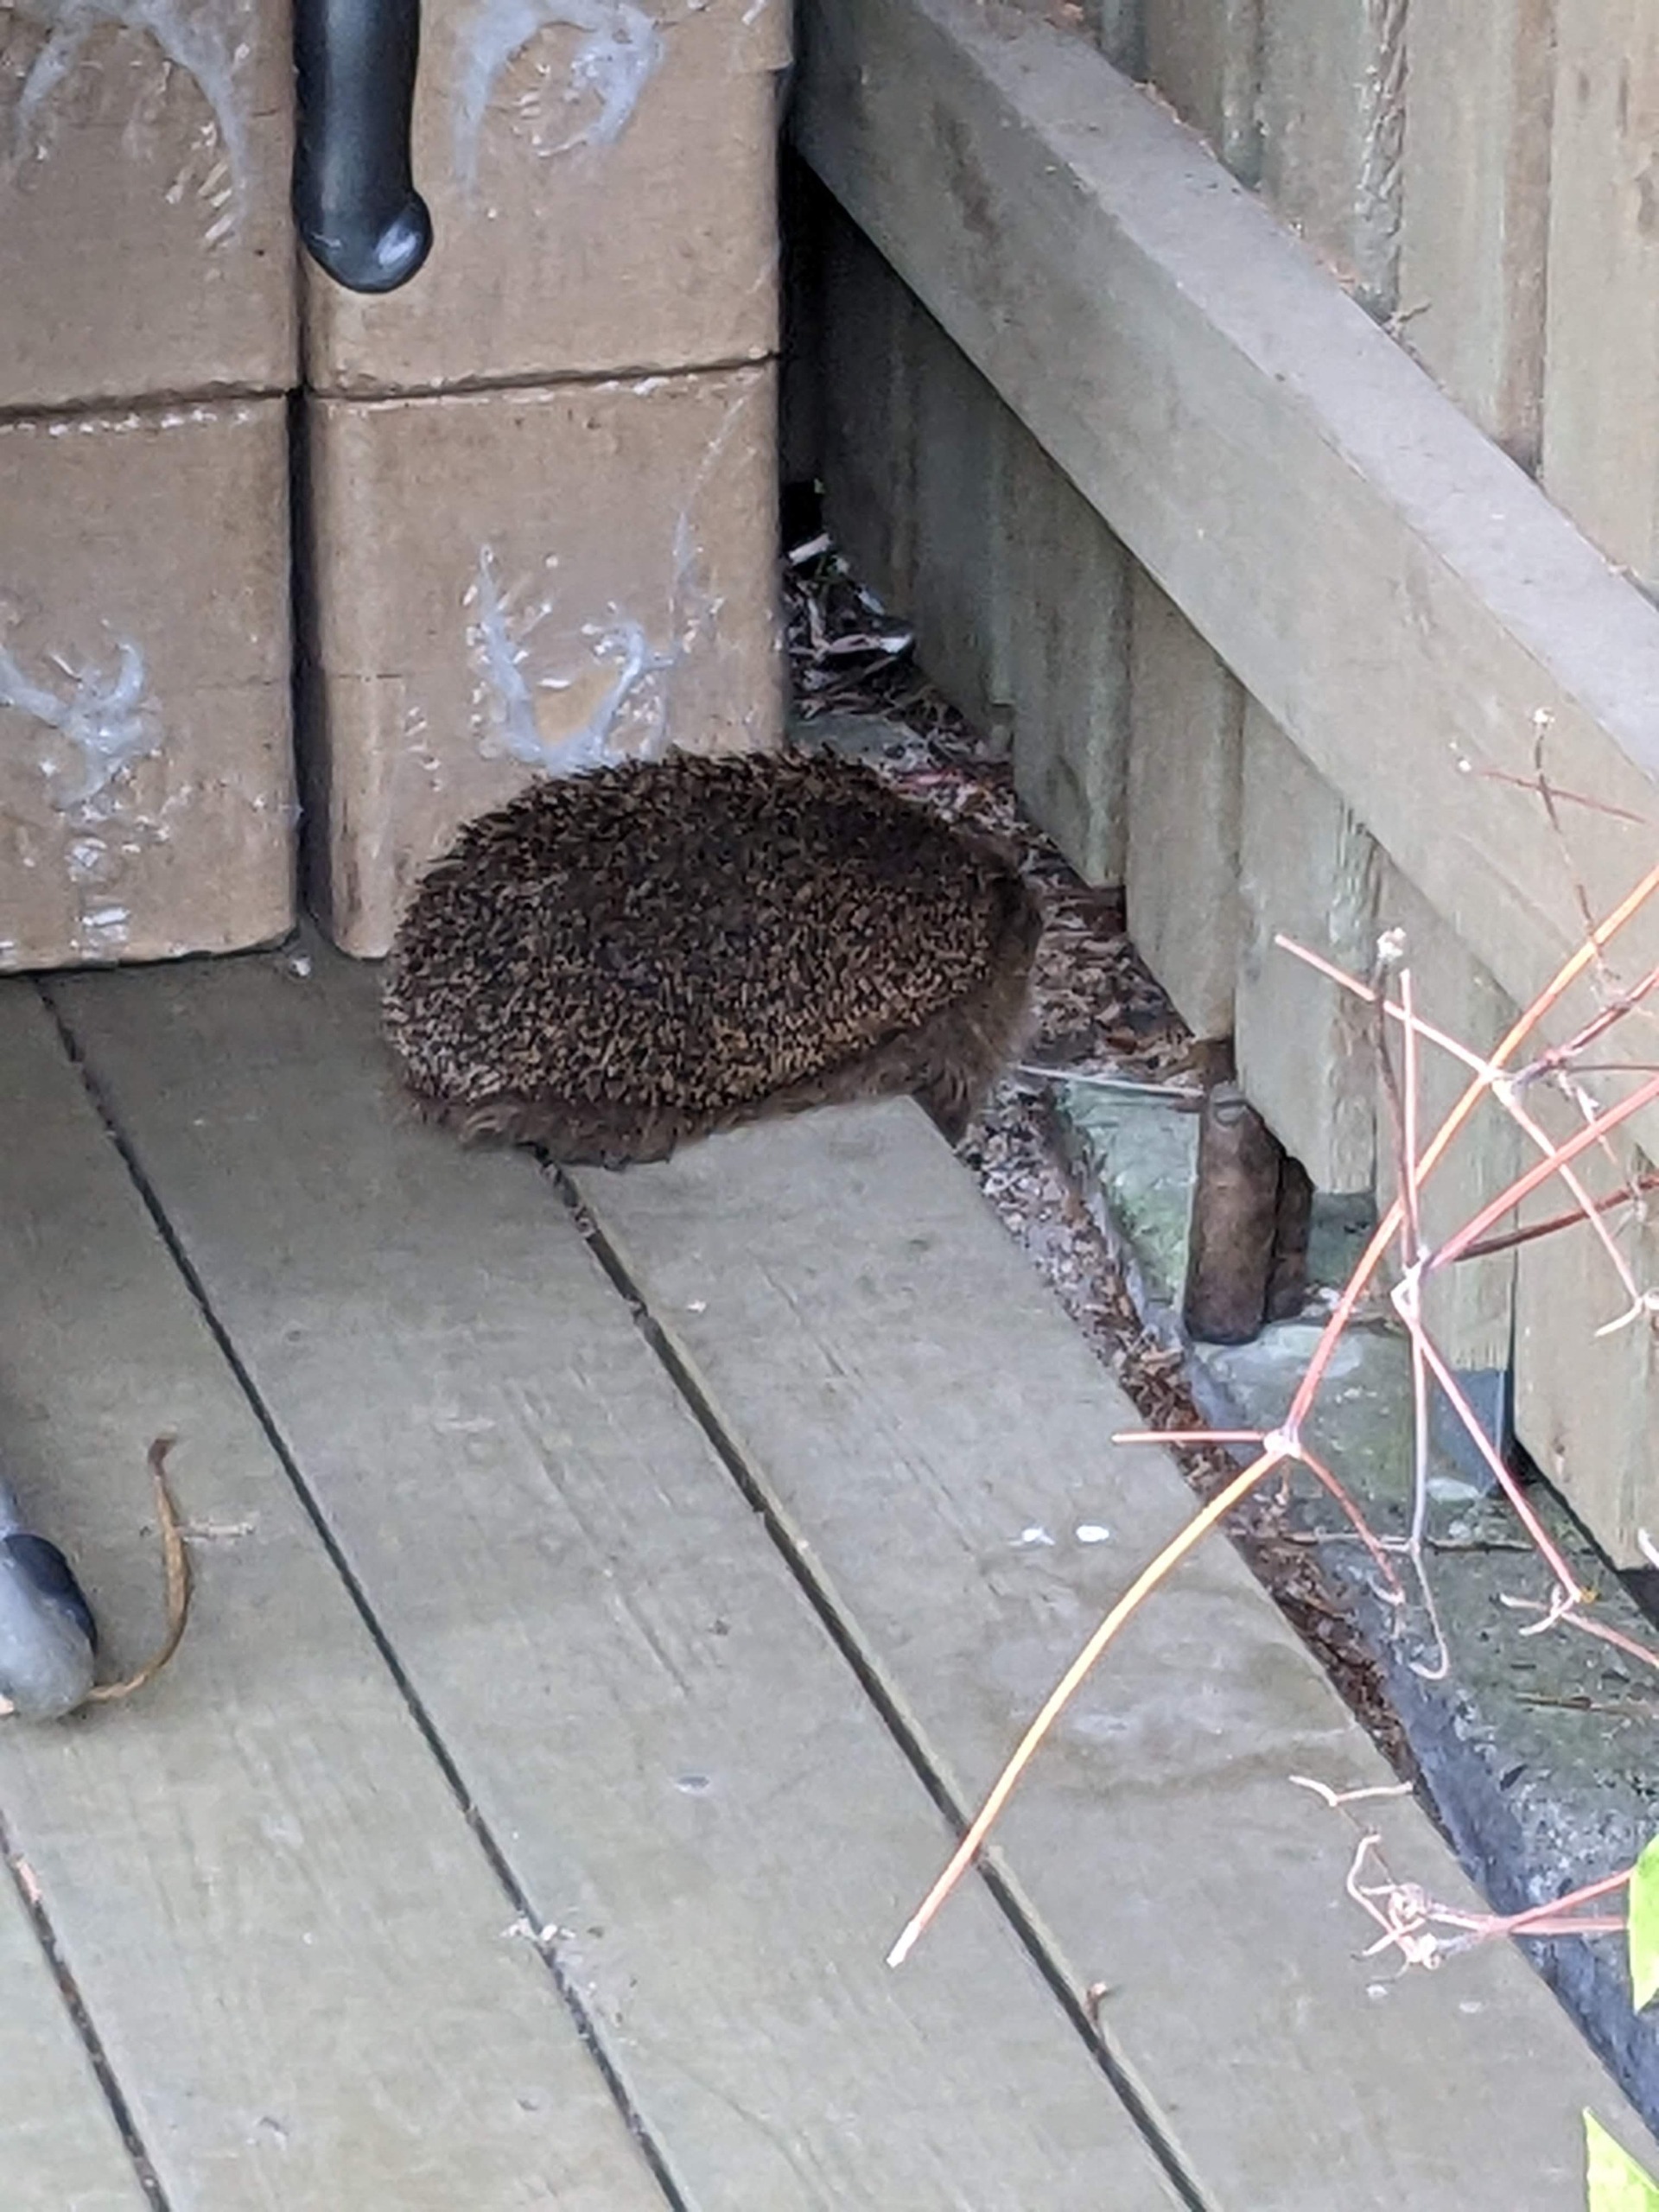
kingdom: Animalia
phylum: Chordata
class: Mammalia
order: Erinaceomorpha
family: Erinaceidae
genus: Erinaceus
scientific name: Erinaceus europaeus
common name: Pindsvin
